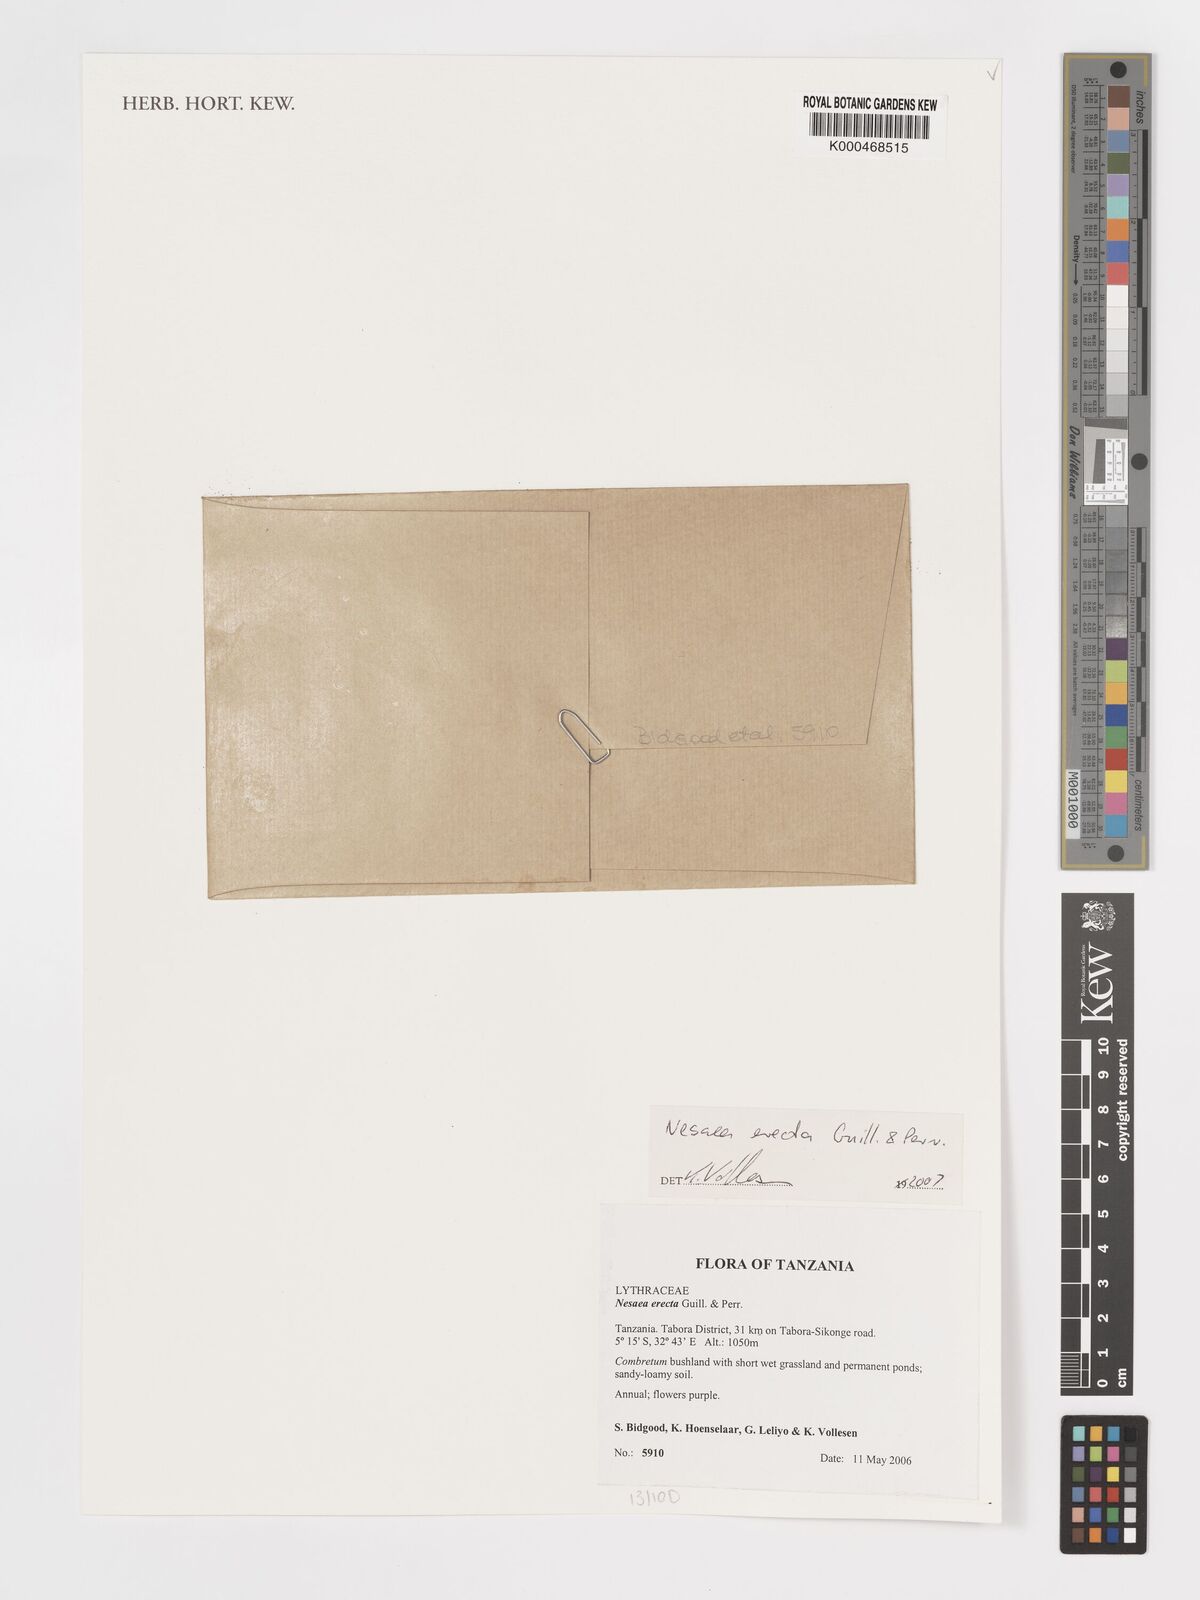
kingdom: Plantae
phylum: Tracheophyta
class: Magnoliopsida
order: Myrtales
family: Lythraceae
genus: Ammannia
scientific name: Ammannia erecta
